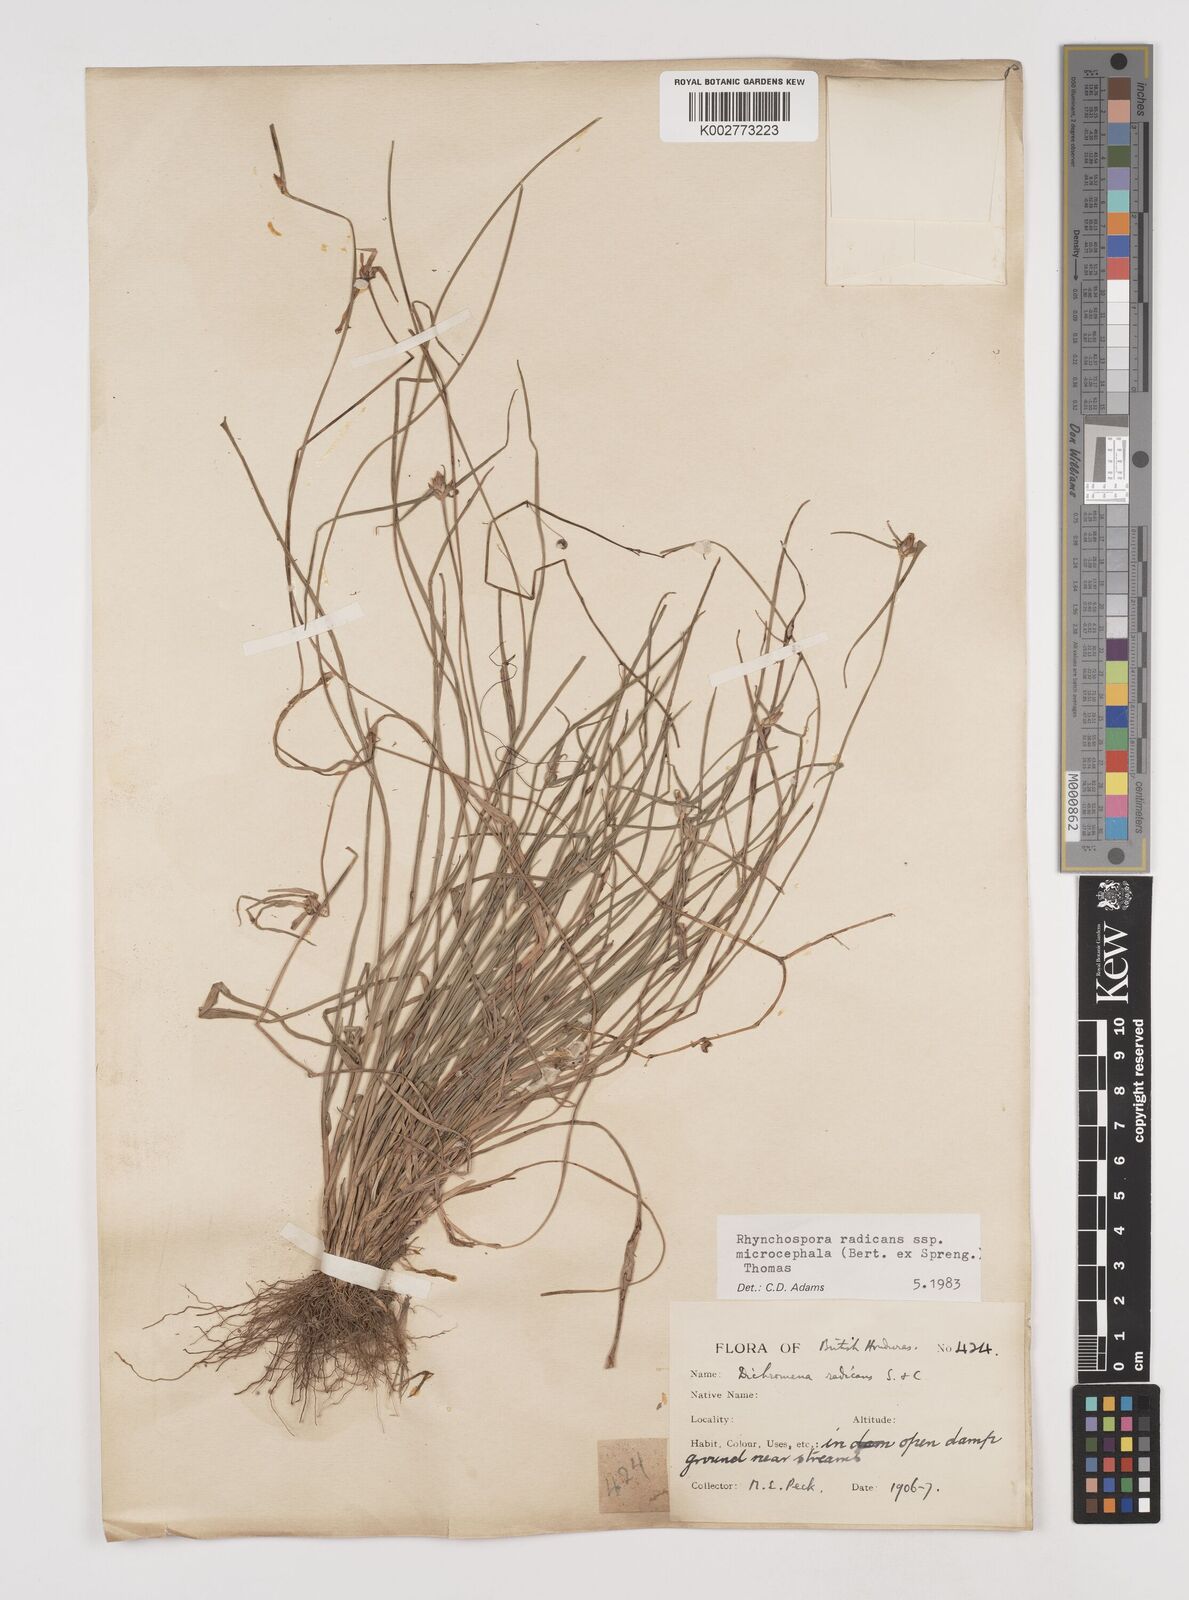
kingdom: Plantae
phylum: Tracheophyta
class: Liliopsida
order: Poales
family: Cyperaceae
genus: Rhynchospora
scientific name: Rhynchospora radicans
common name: Tropical whitetop
